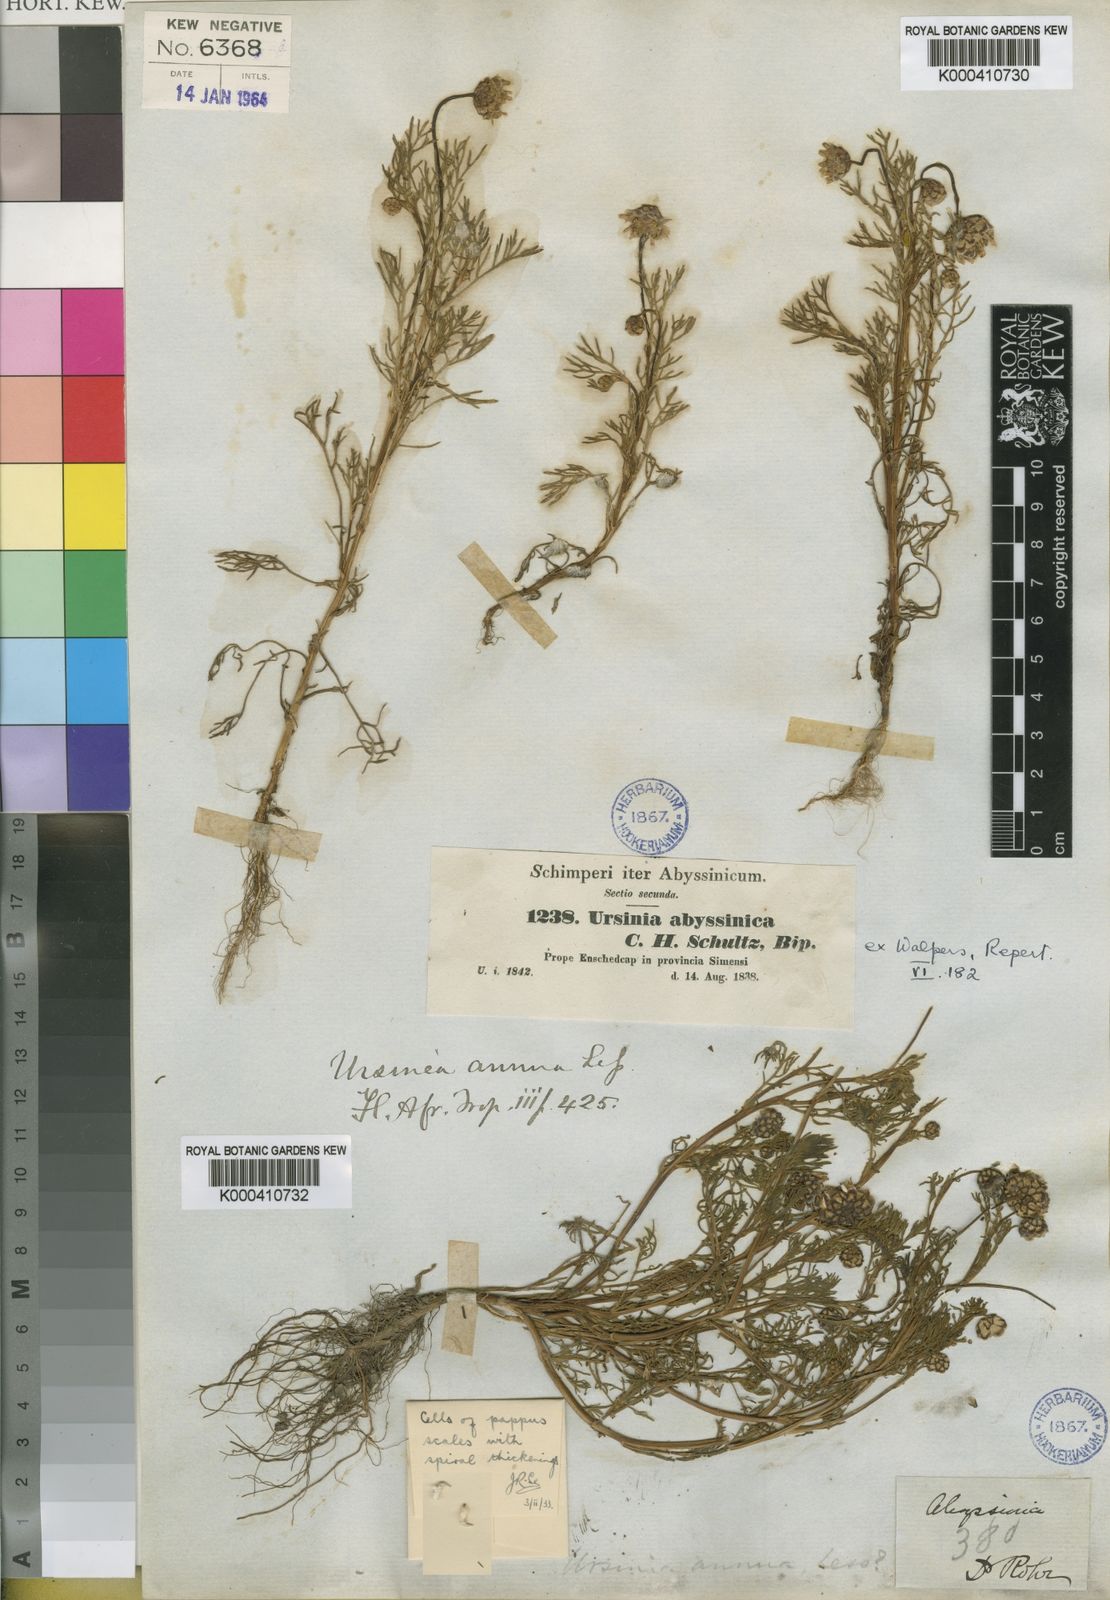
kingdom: Plantae
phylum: Tracheophyta
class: Magnoliopsida
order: Asterales
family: Asteraceae
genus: Ursinia
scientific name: Ursinia nana
